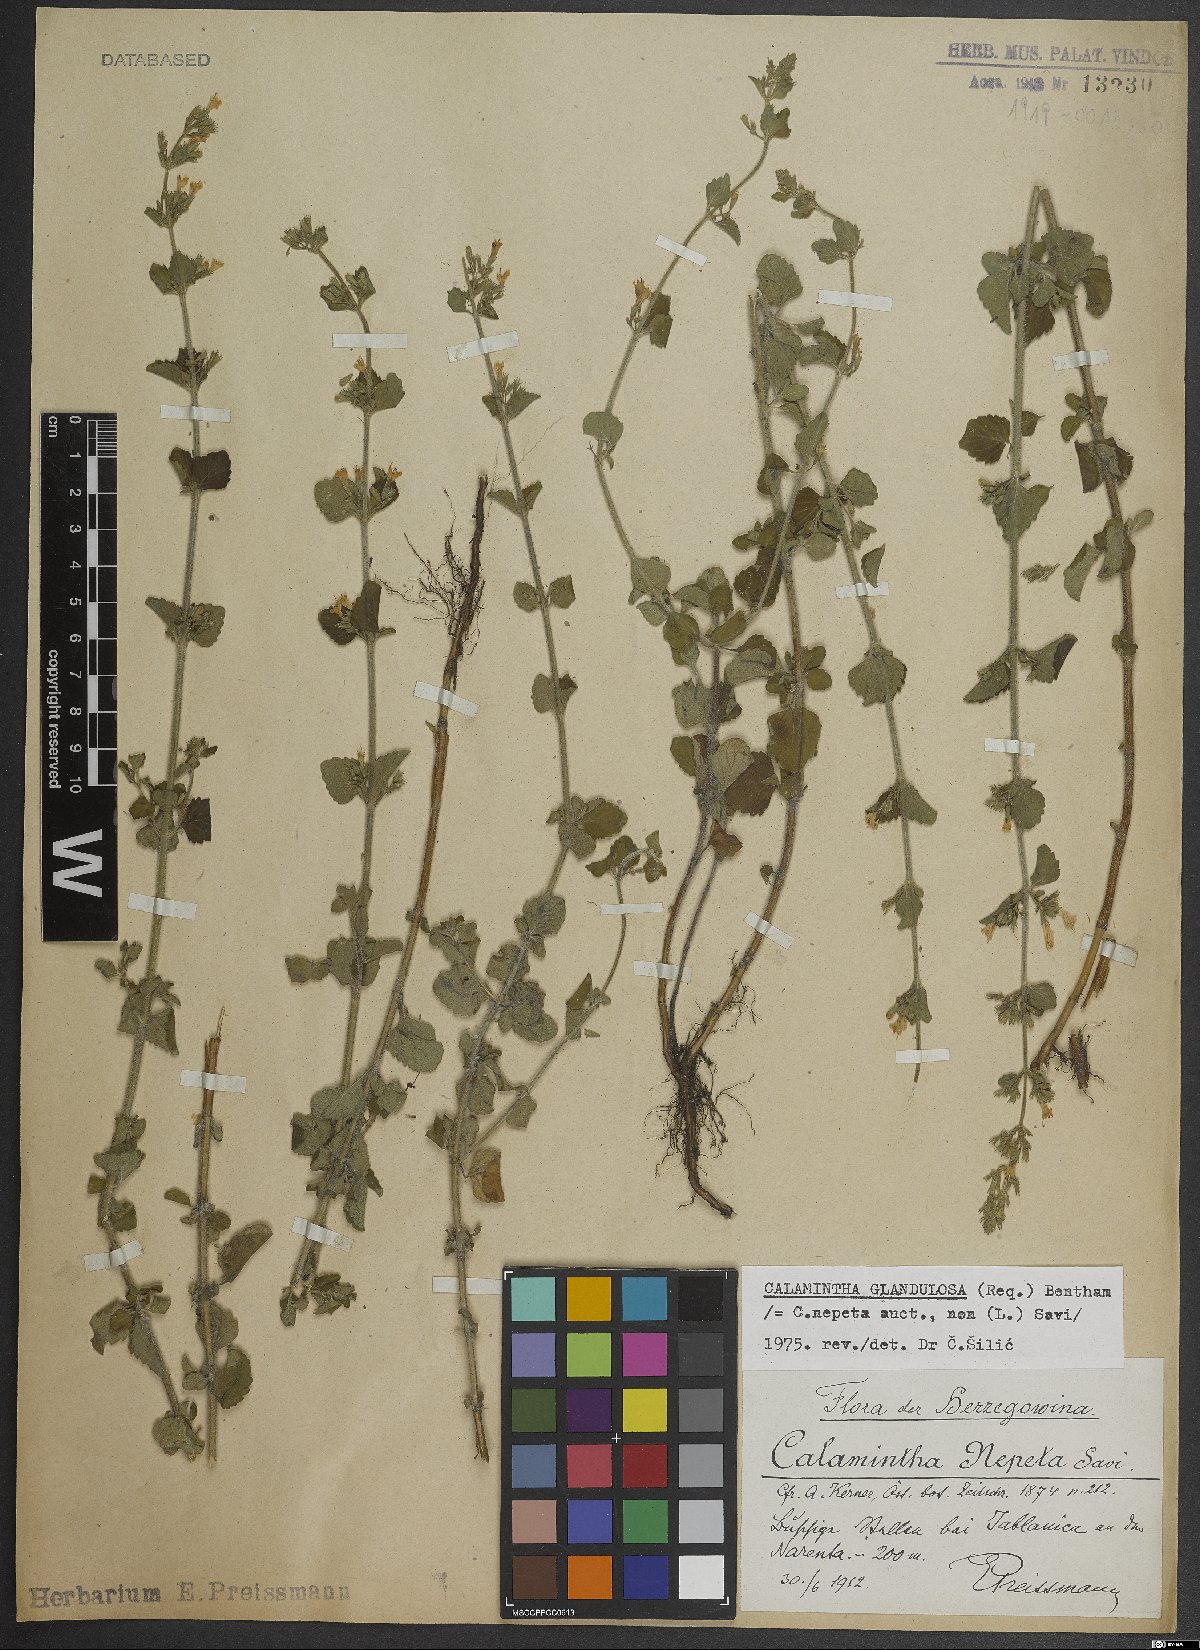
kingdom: Plantae
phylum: Tracheophyta
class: Magnoliopsida
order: Lamiales
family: Lamiaceae
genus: Clinopodium
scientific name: Clinopodium nepeta
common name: Lesser calamint
